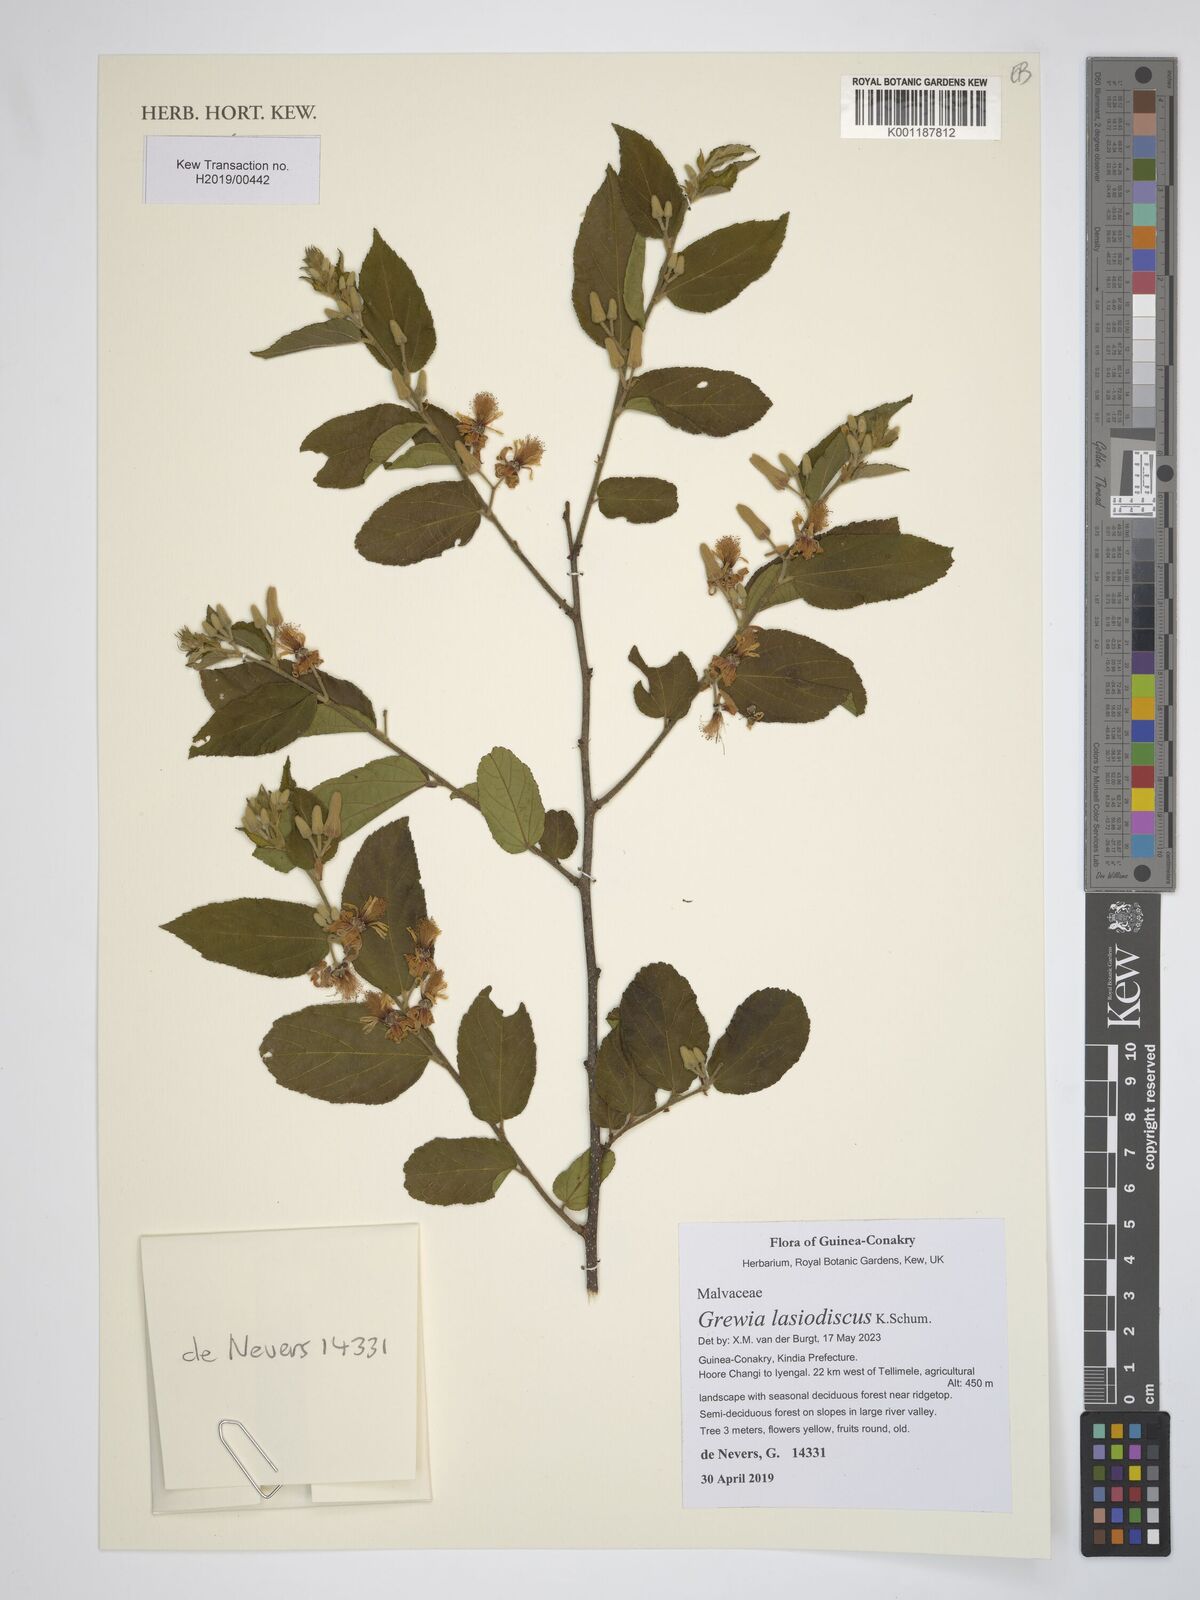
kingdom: Plantae
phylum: Tracheophyta
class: Magnoliopsida
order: Malvales
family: Malvaceae
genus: Grewia
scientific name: Grewia lasiodiscus
